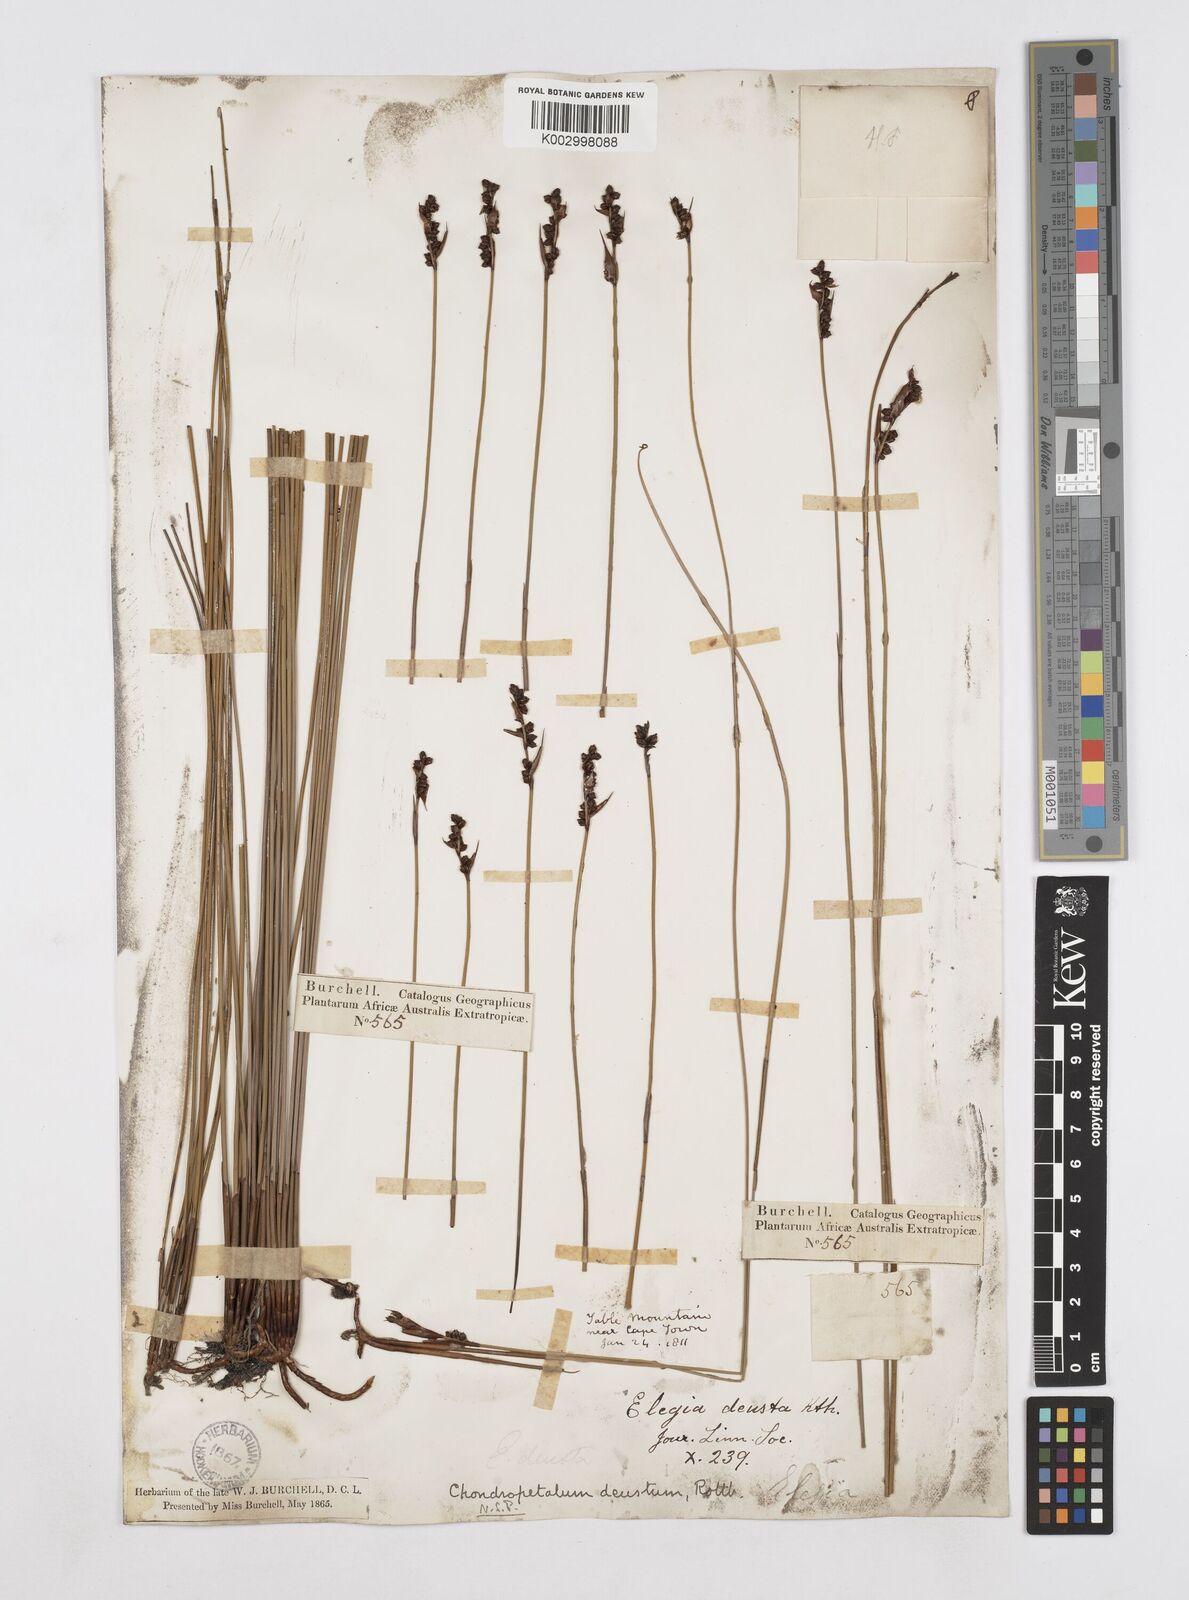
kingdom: Plantae
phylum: Tracheophyta
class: Liliopsida
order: Poales
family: Restionaceae
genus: Elegia
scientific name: Elegia deusta
